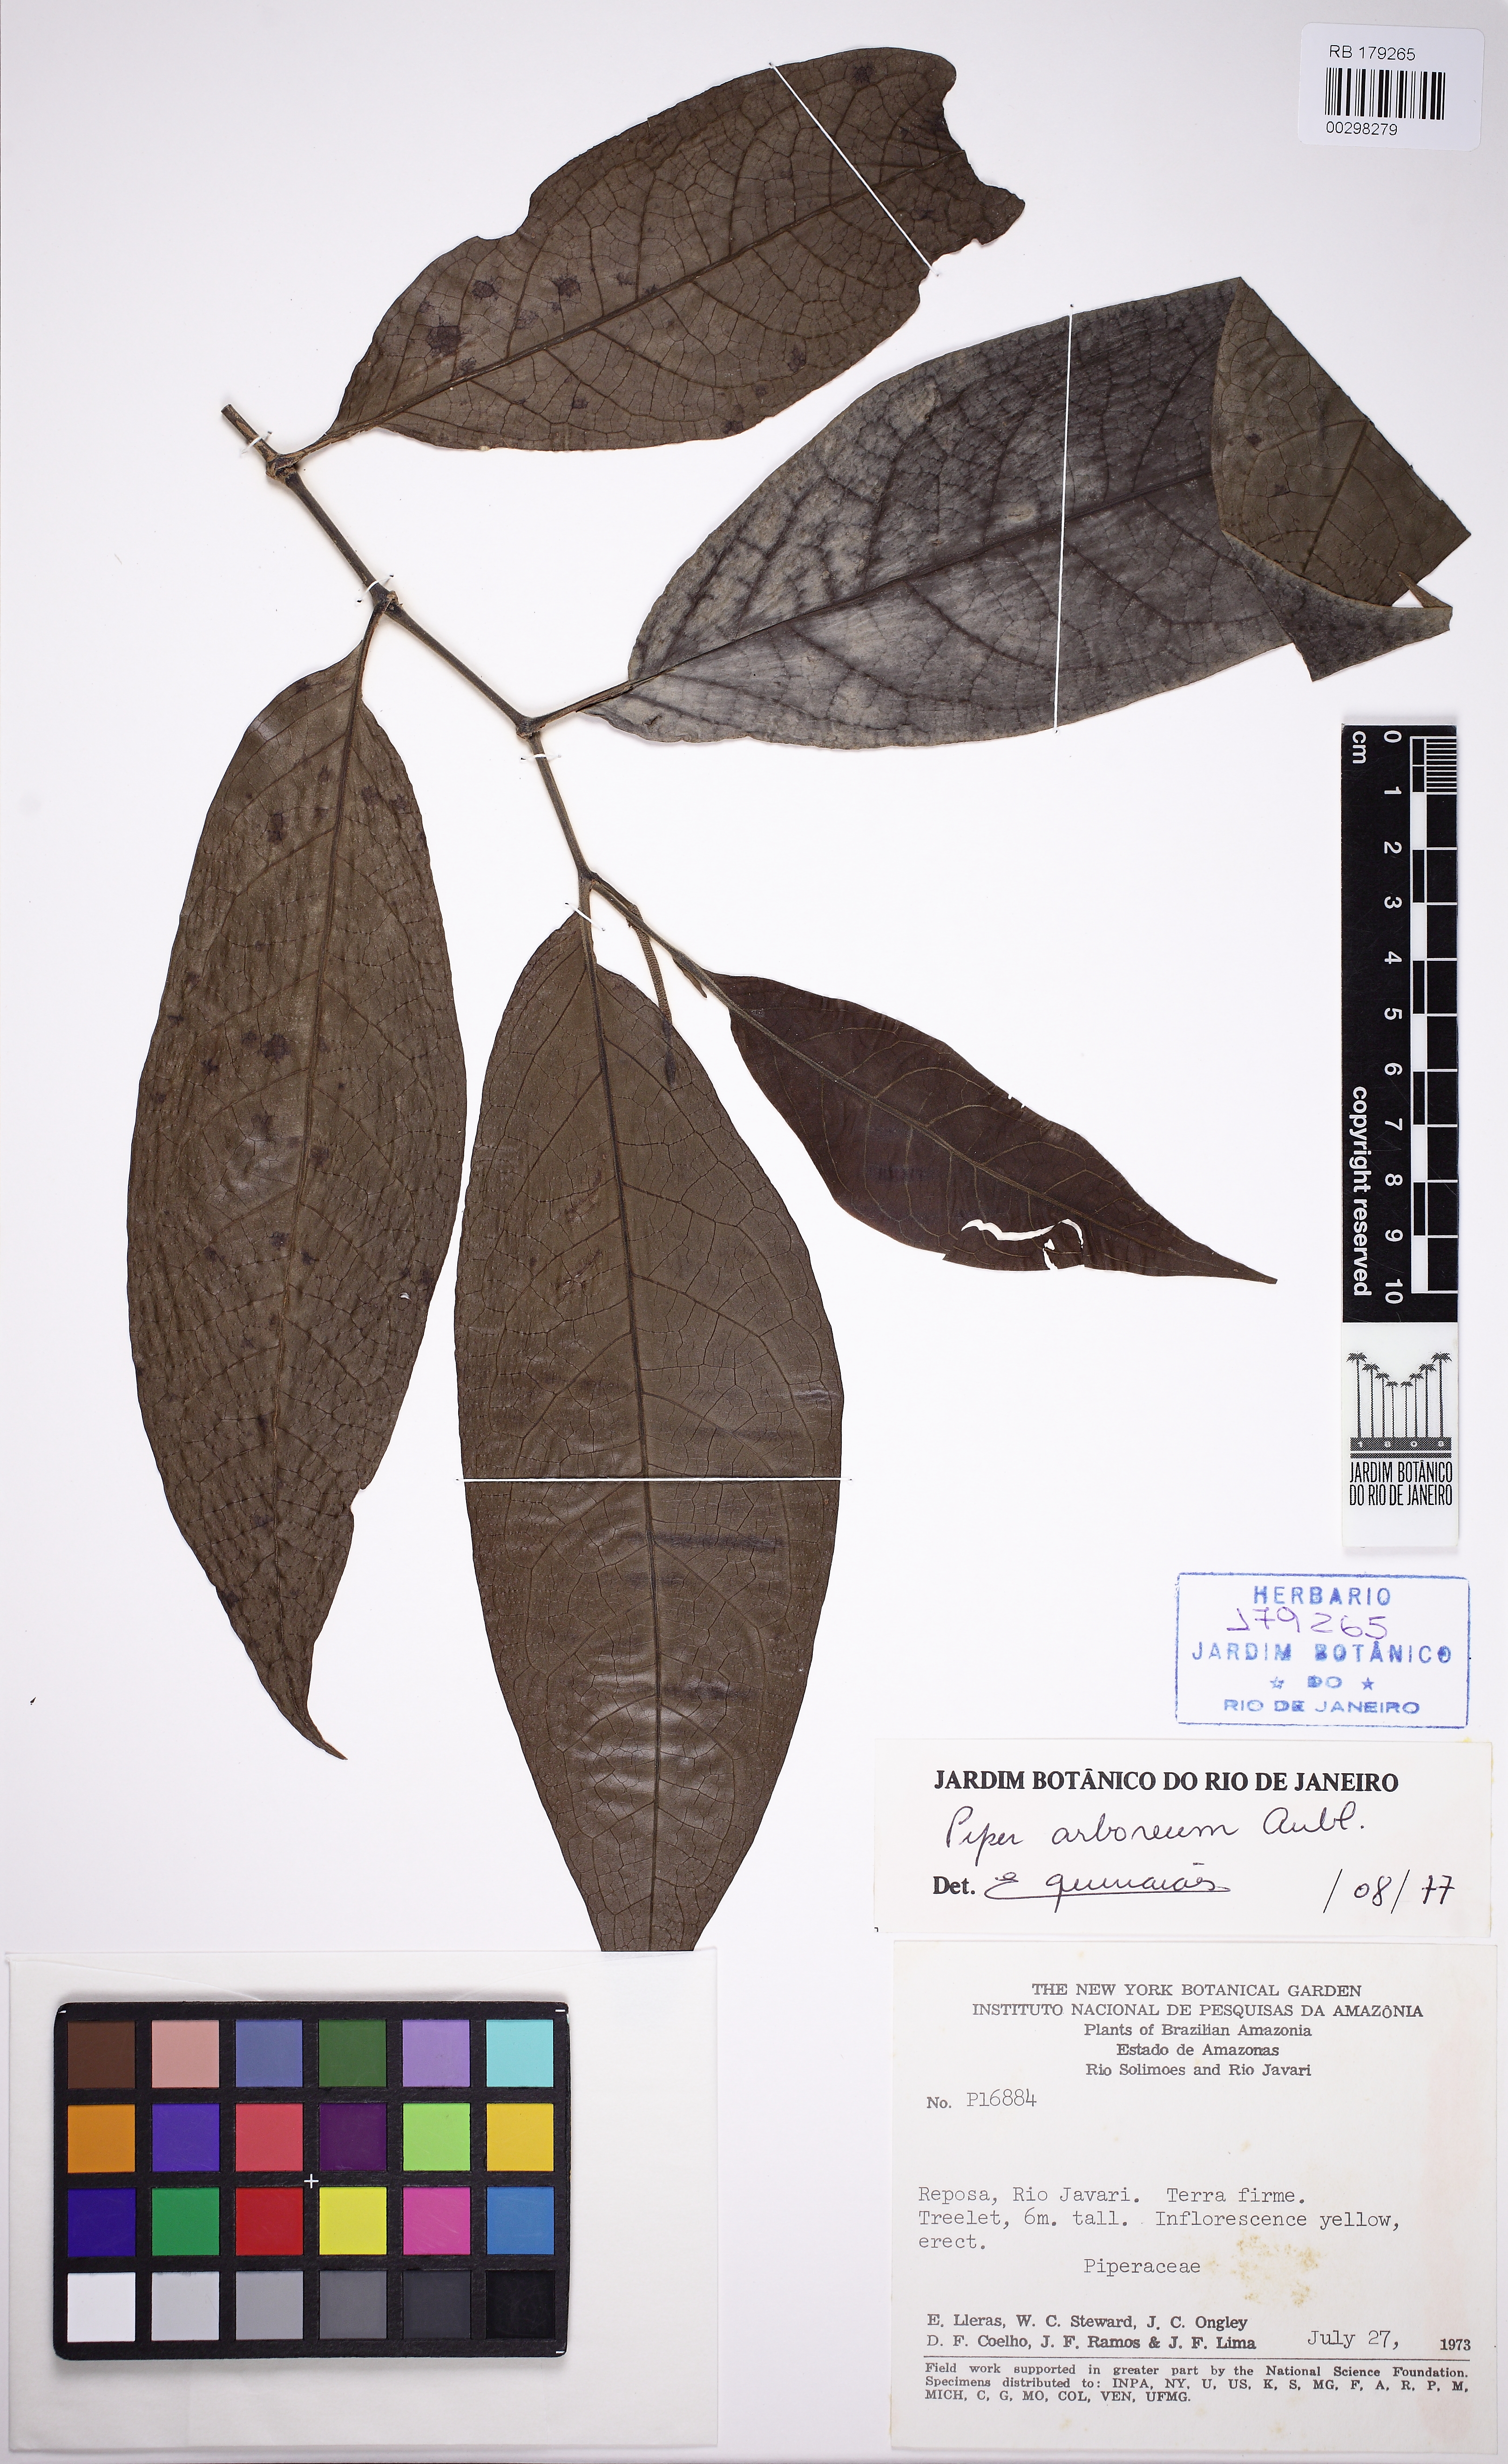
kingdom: Plantae
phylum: Tracheophyta
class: Magnoliopsida
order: Piperales
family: Piperaceae
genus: Piper
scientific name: Piper arboreum
